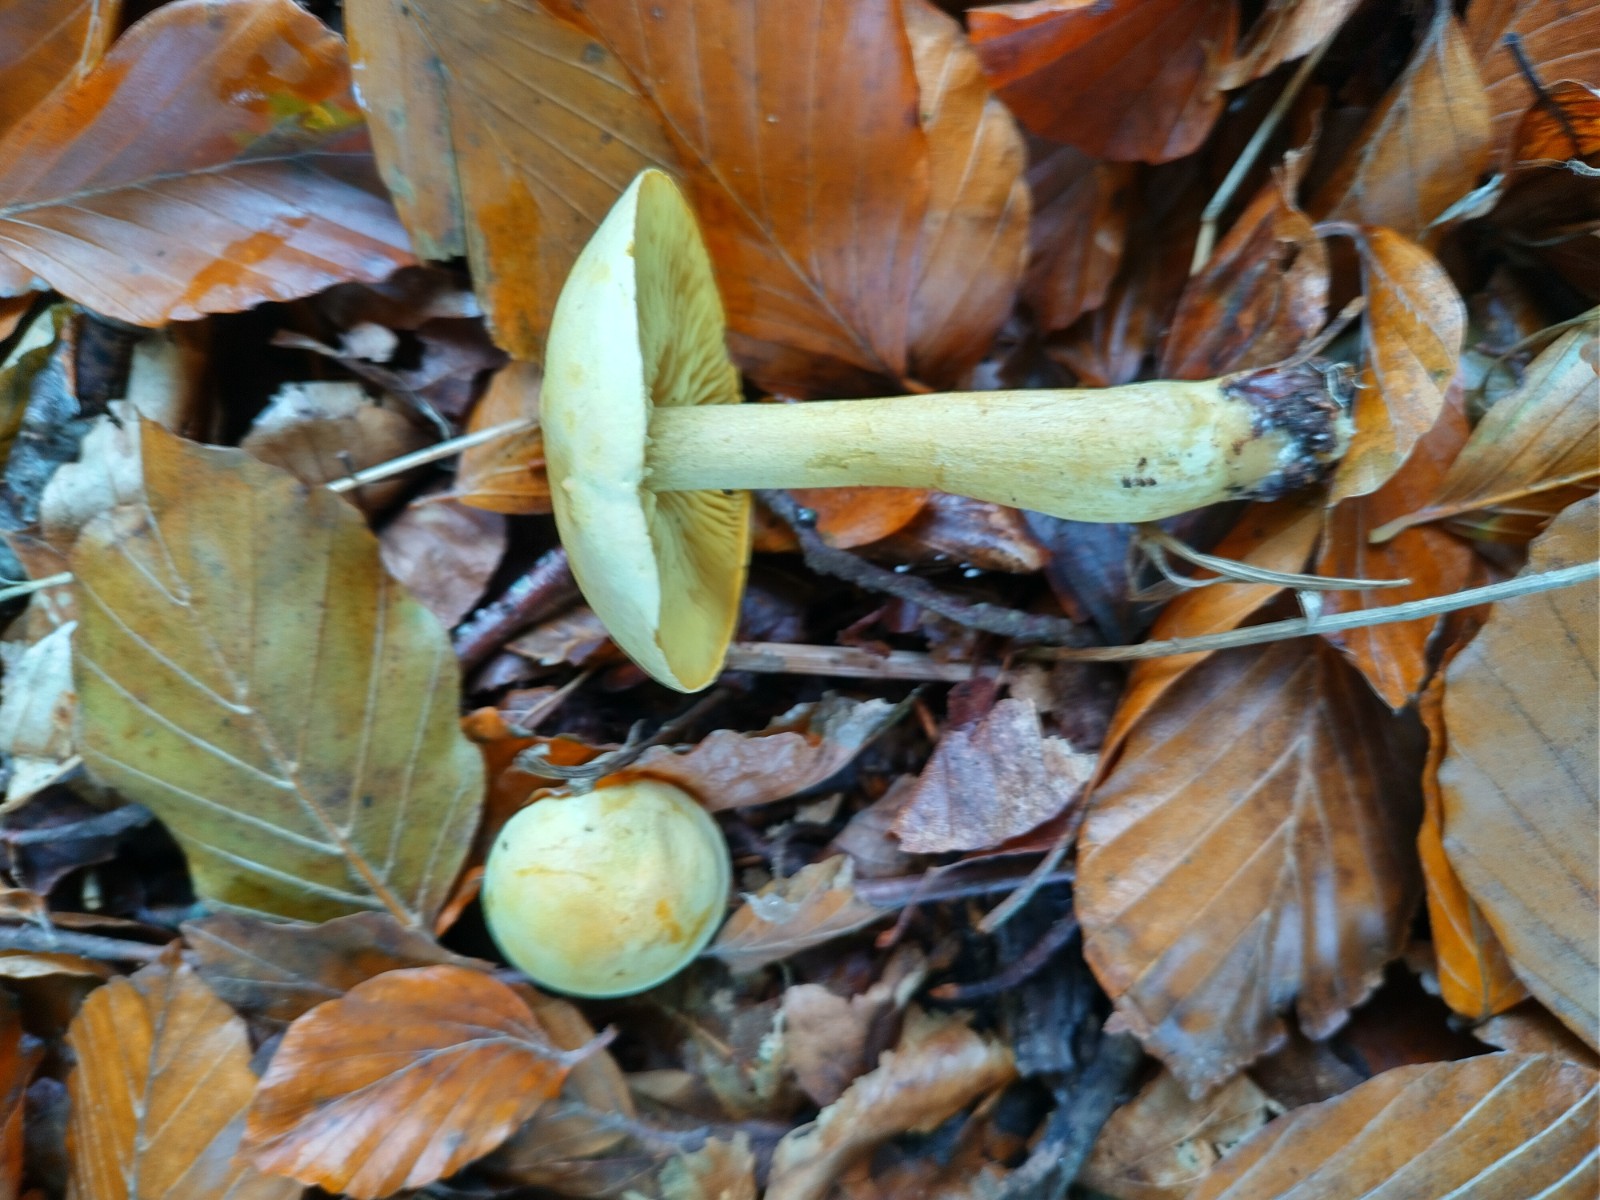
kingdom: Fungi
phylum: Basidiomycota
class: Agaricomycetes
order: Agaricales
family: Tricholomataceae
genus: Tricholoma
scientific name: Tricholoma sulphureum
